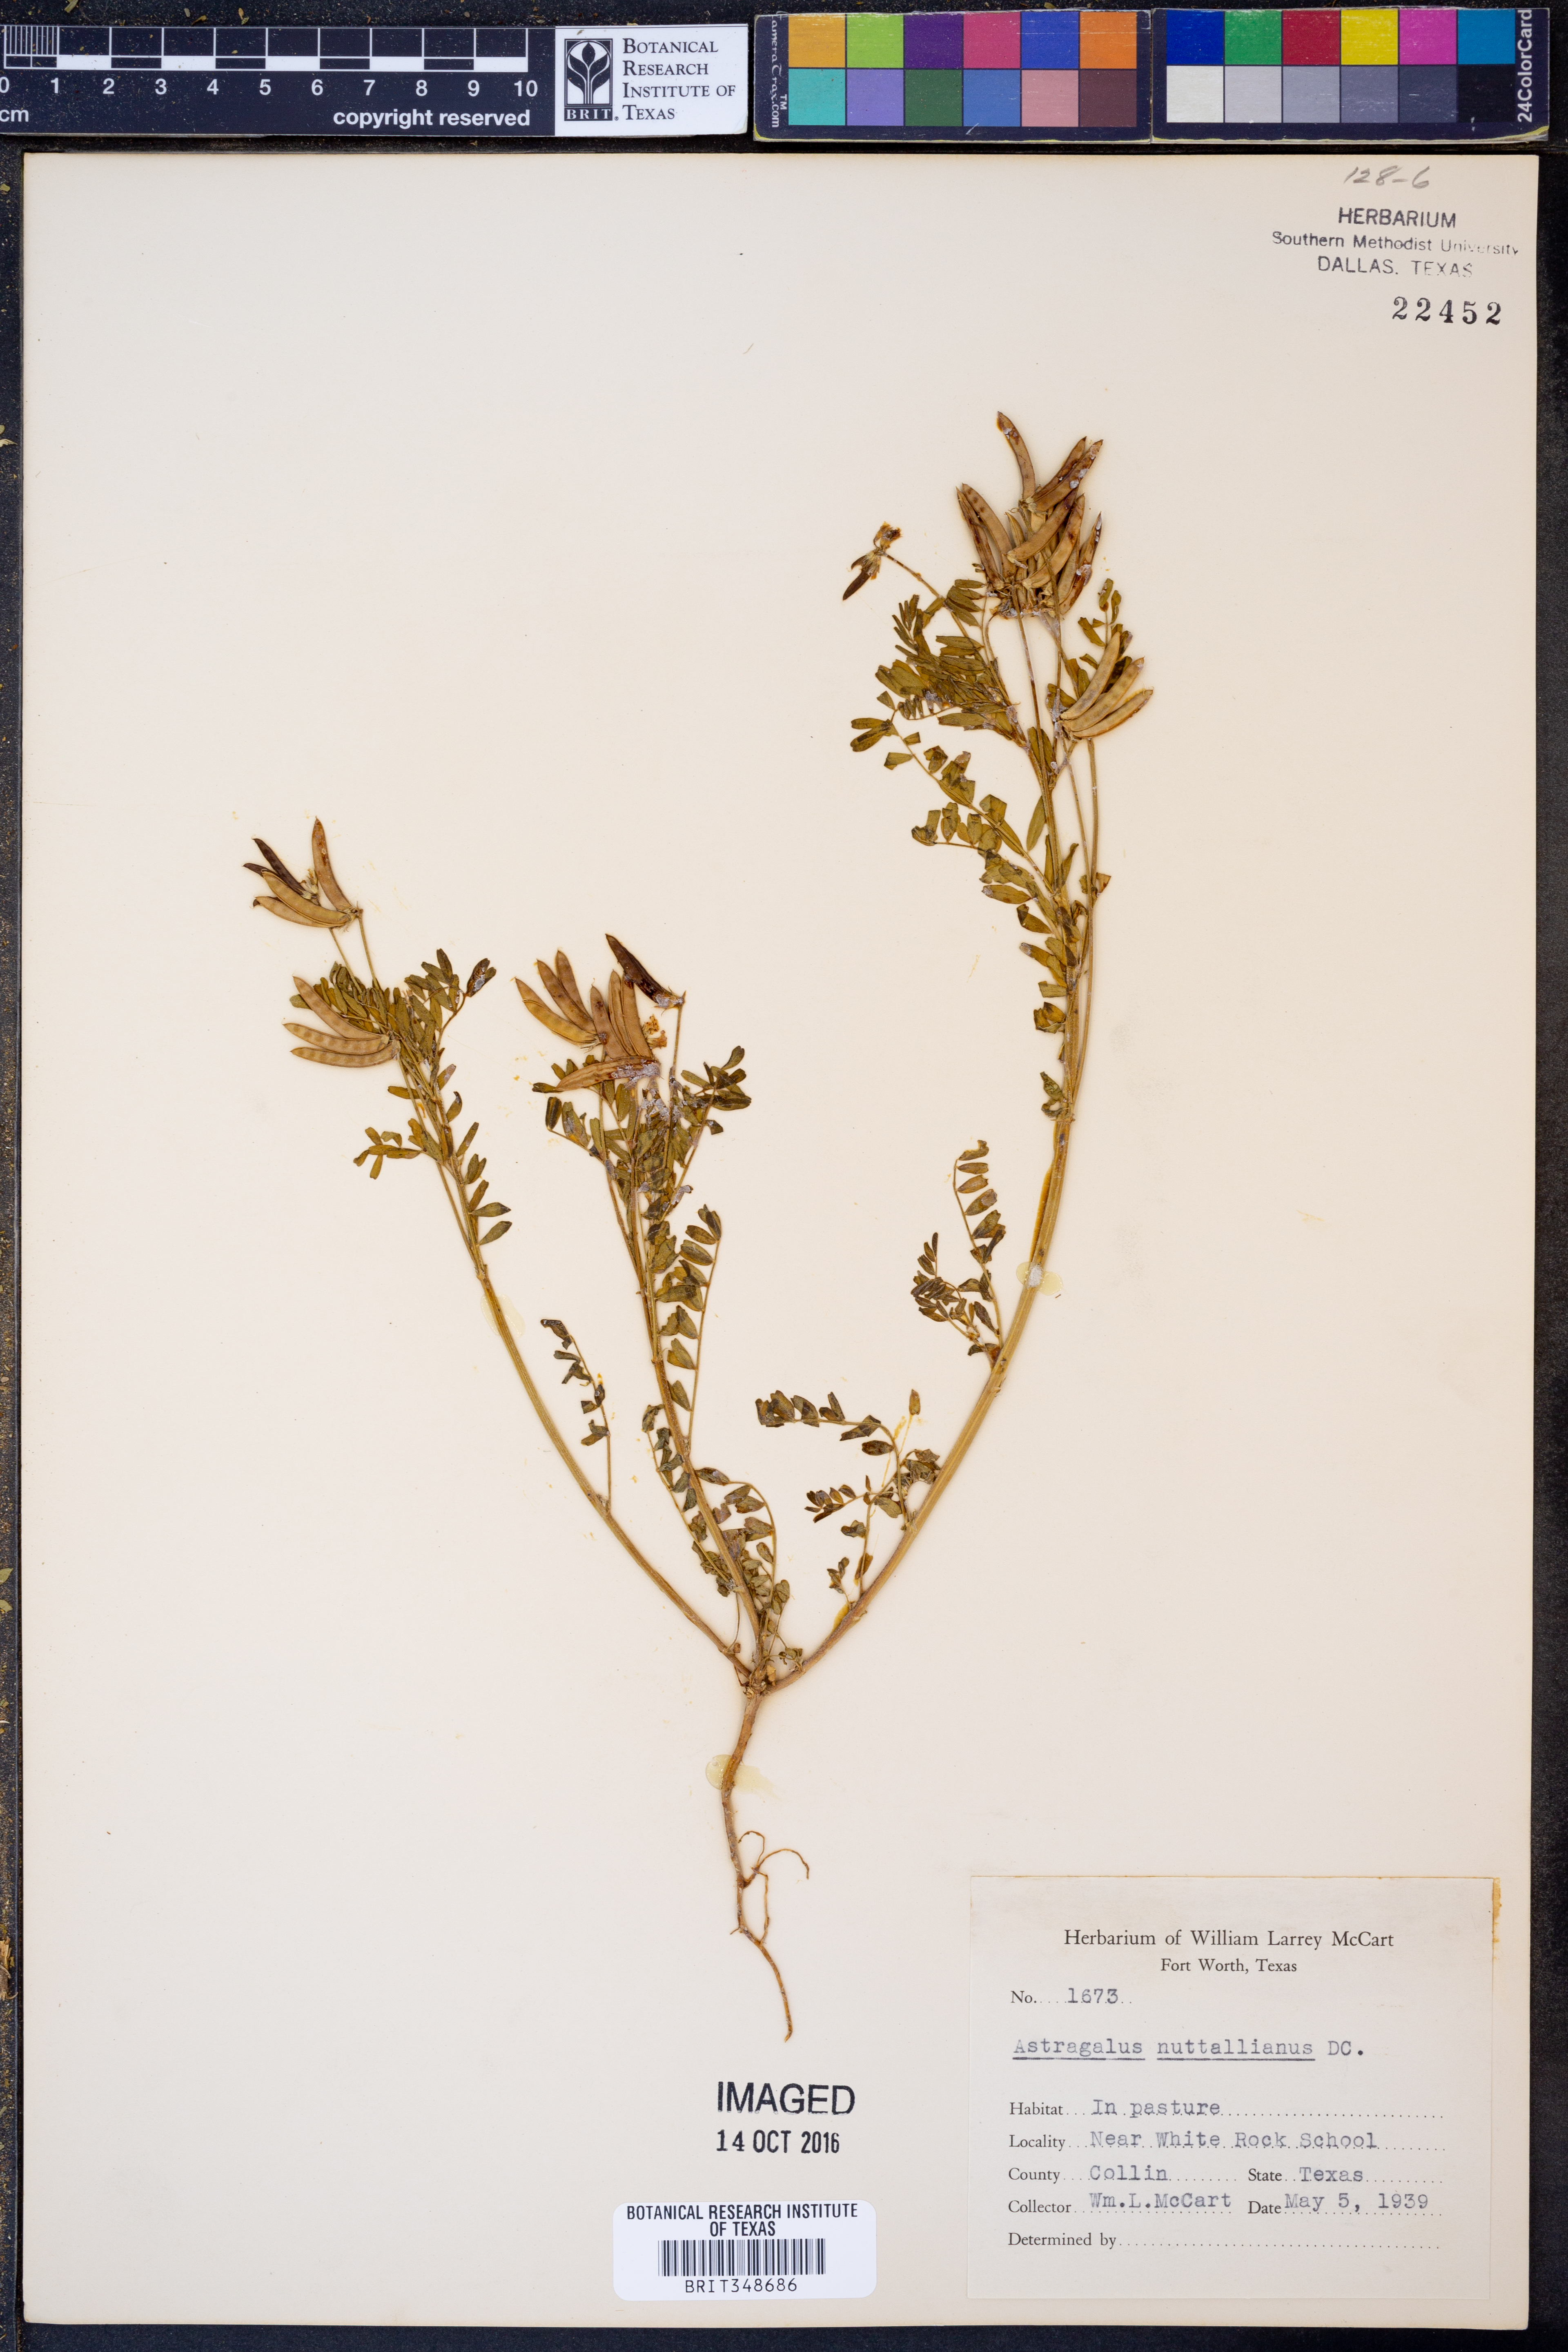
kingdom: Plantae
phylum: Tracheophyta
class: Magnoliopsida
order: Fabales
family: Fabaceae
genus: Astragalus
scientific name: Astragalus nuttallianus
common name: Smallflowered milkvetch
